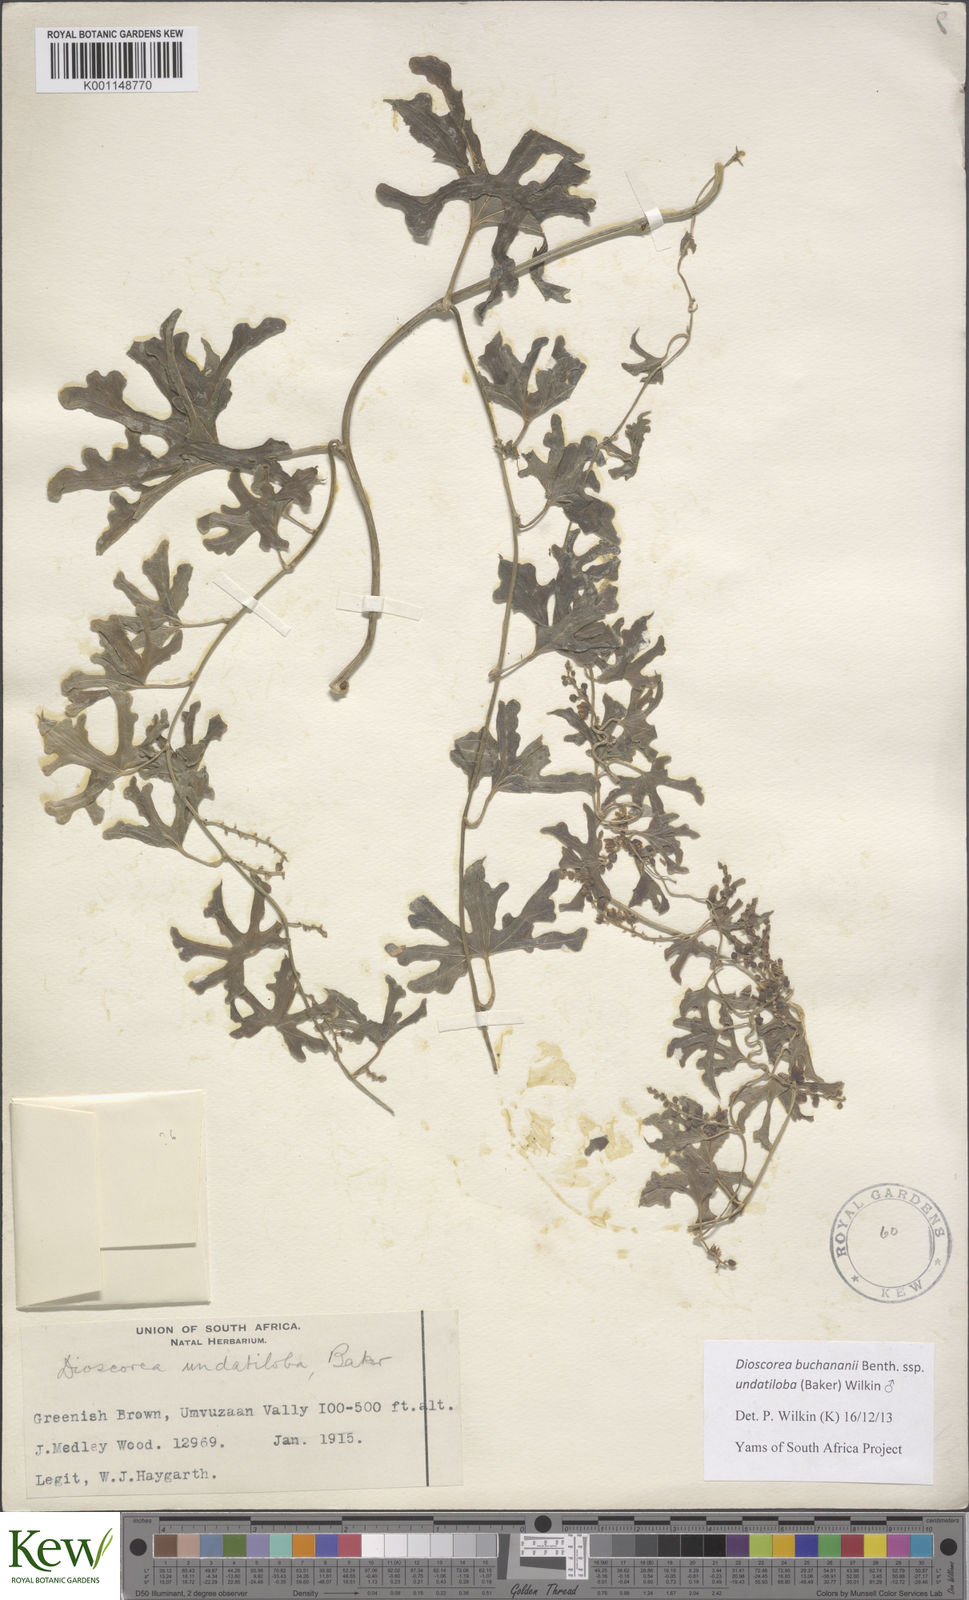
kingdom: Plantae
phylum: Tracheophyta
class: Liliopsida
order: Dioscoreales
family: Dioscoreaceae
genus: Dioscorea
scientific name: Dioscorea buchananii
